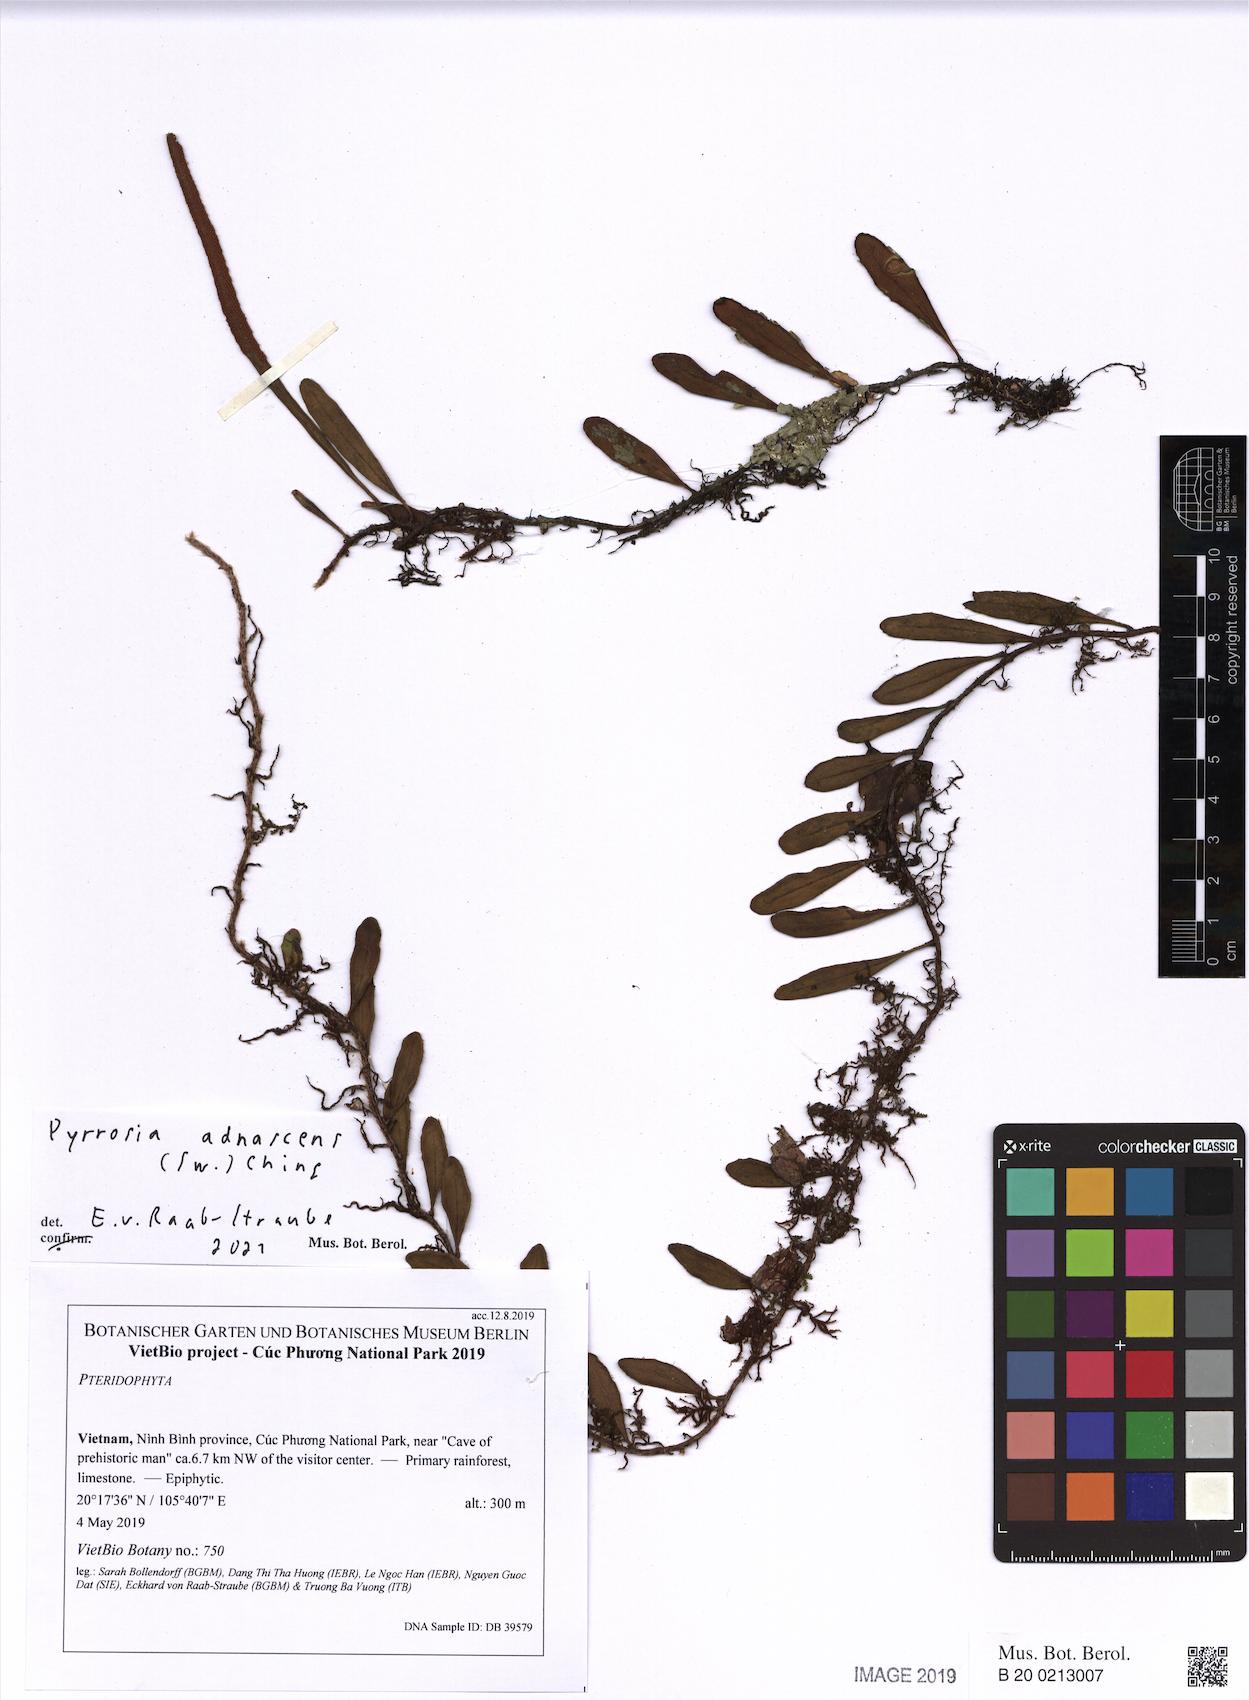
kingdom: Plantae
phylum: Tracheophyta
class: Polypodiopsida
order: Polypodiales
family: Polypodiaceae
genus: Pyrrosia
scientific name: Pyrrosia adnascens
